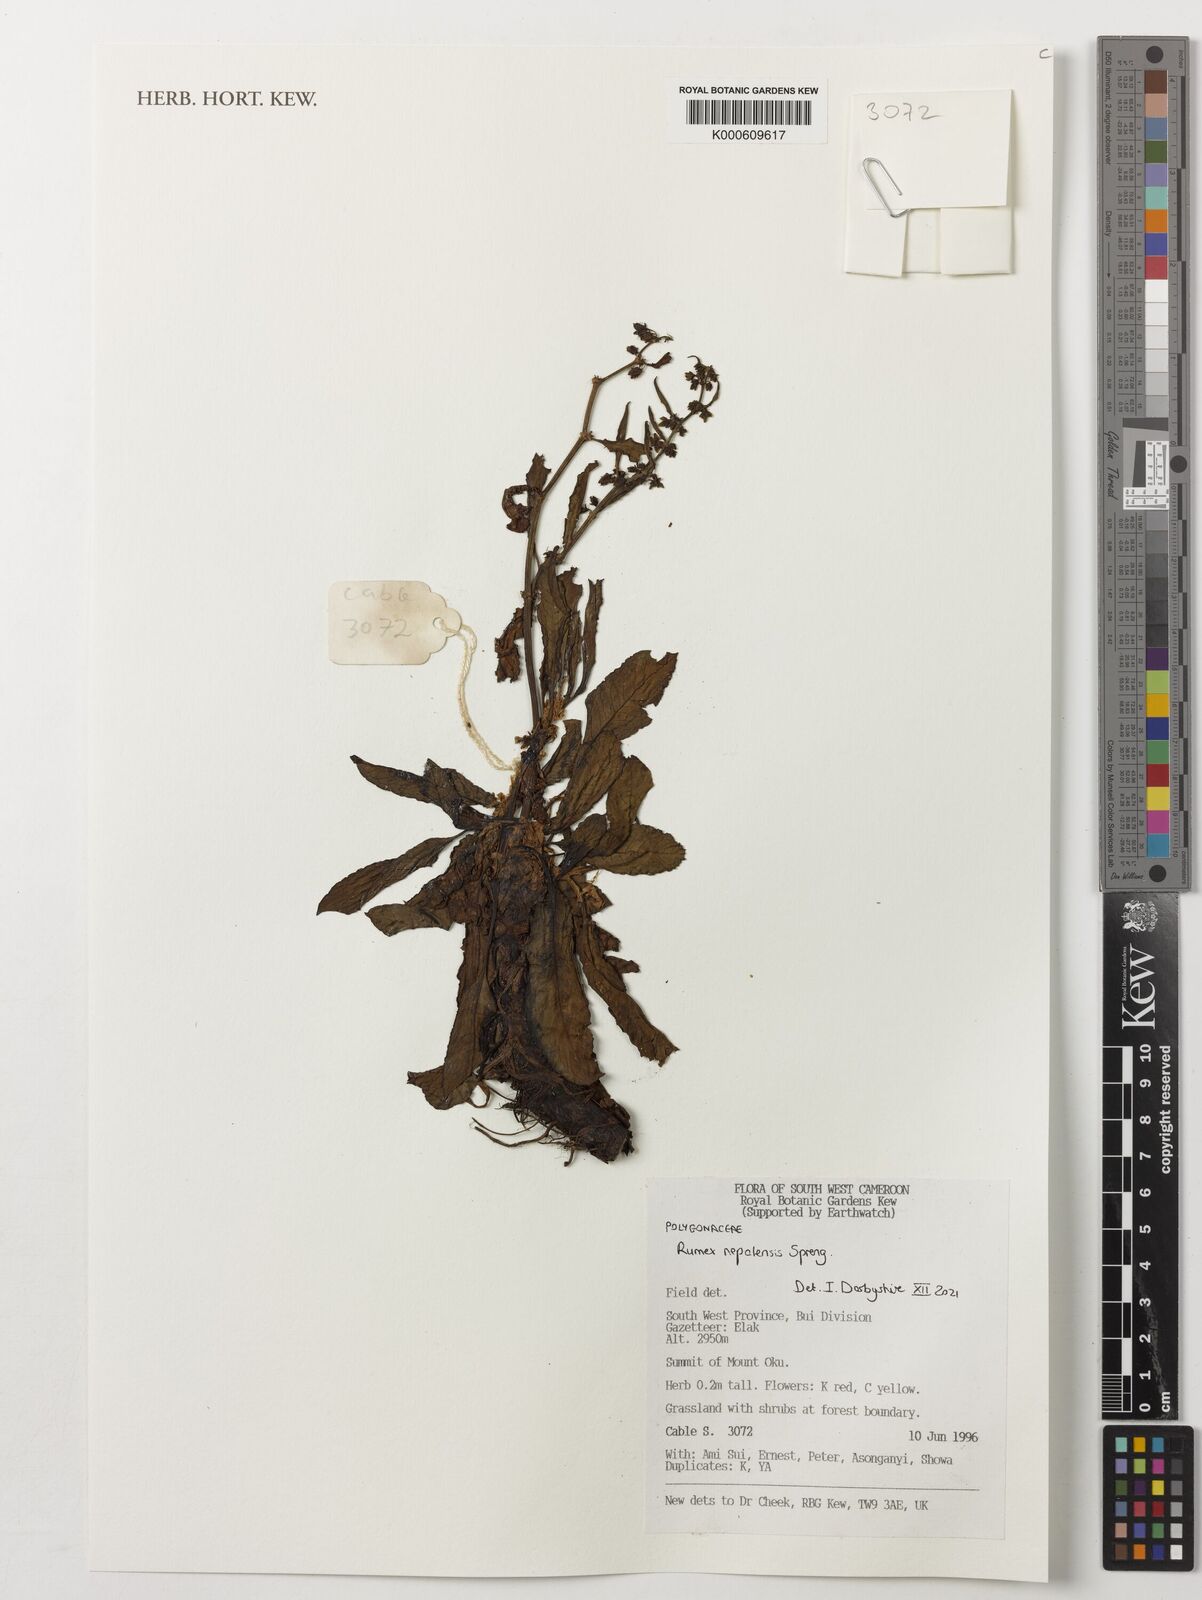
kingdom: Plantae
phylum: Tracheophyta
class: Magnoliopsida
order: Caryophyllales
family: Polygonaceae
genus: Rumex
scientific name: Rumex nepalensis
